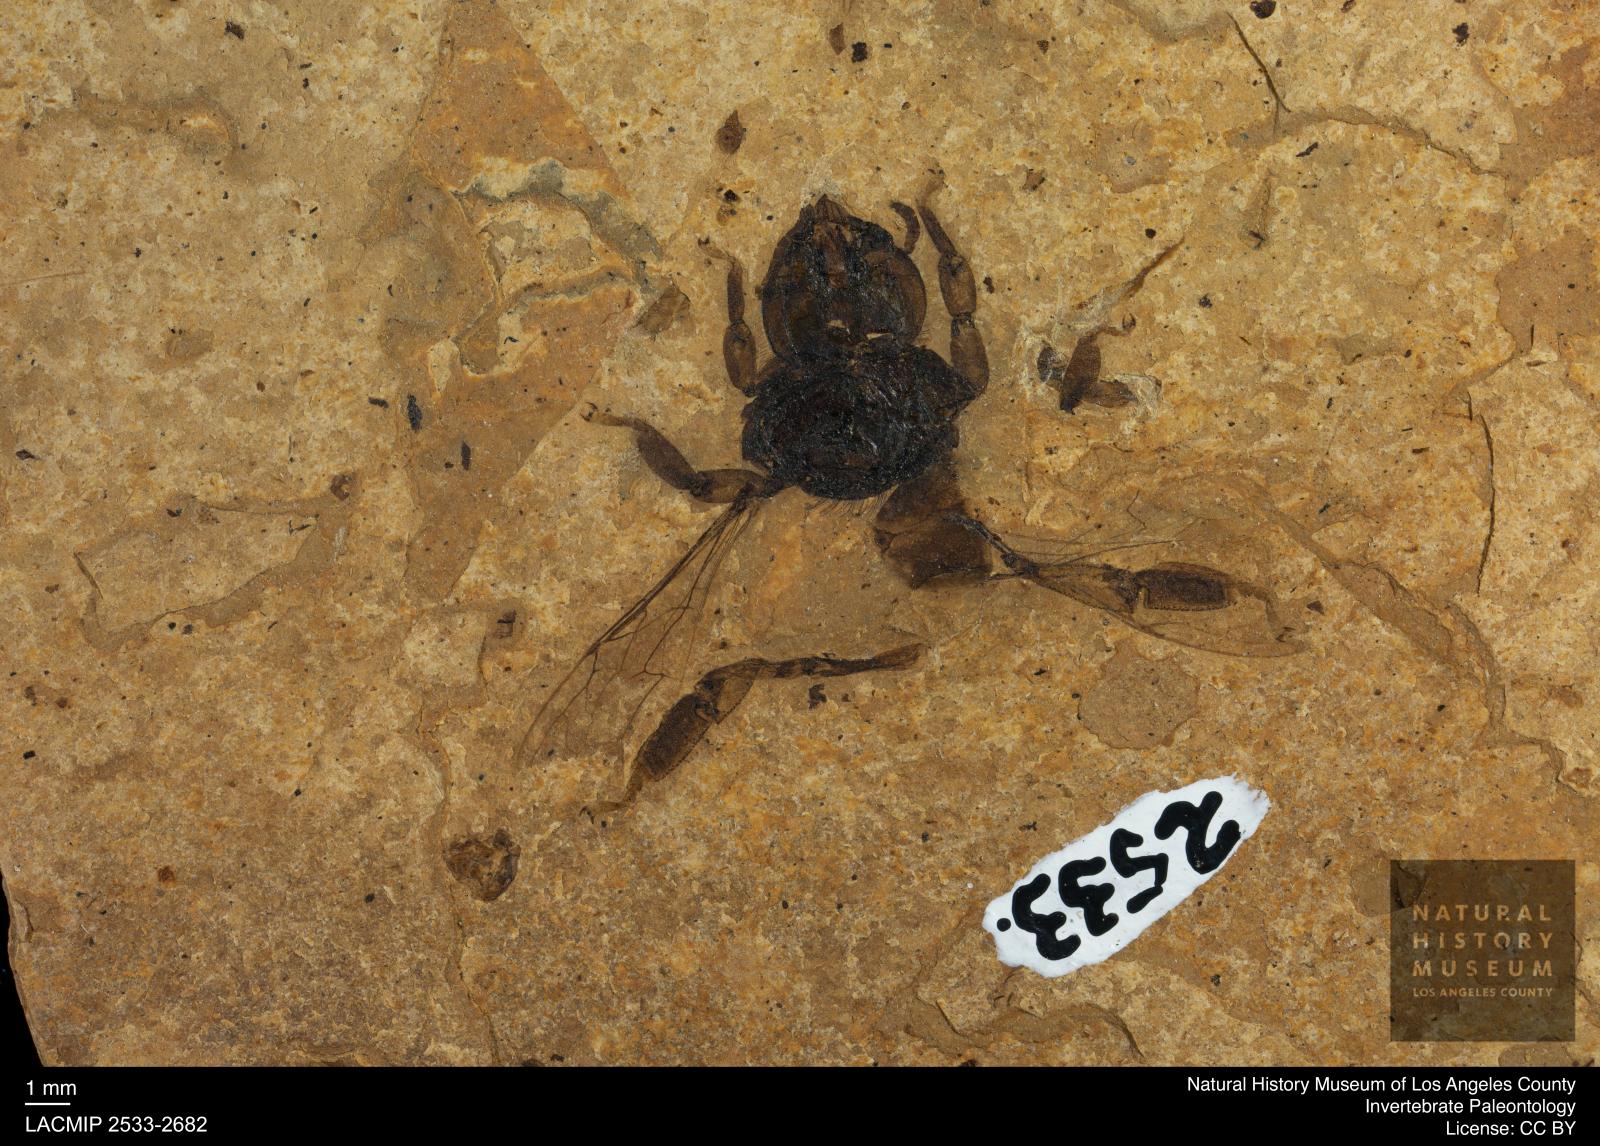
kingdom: Animalia
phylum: Arthropoda
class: Insecta
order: Hymenoptera
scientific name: Hymenoptera
